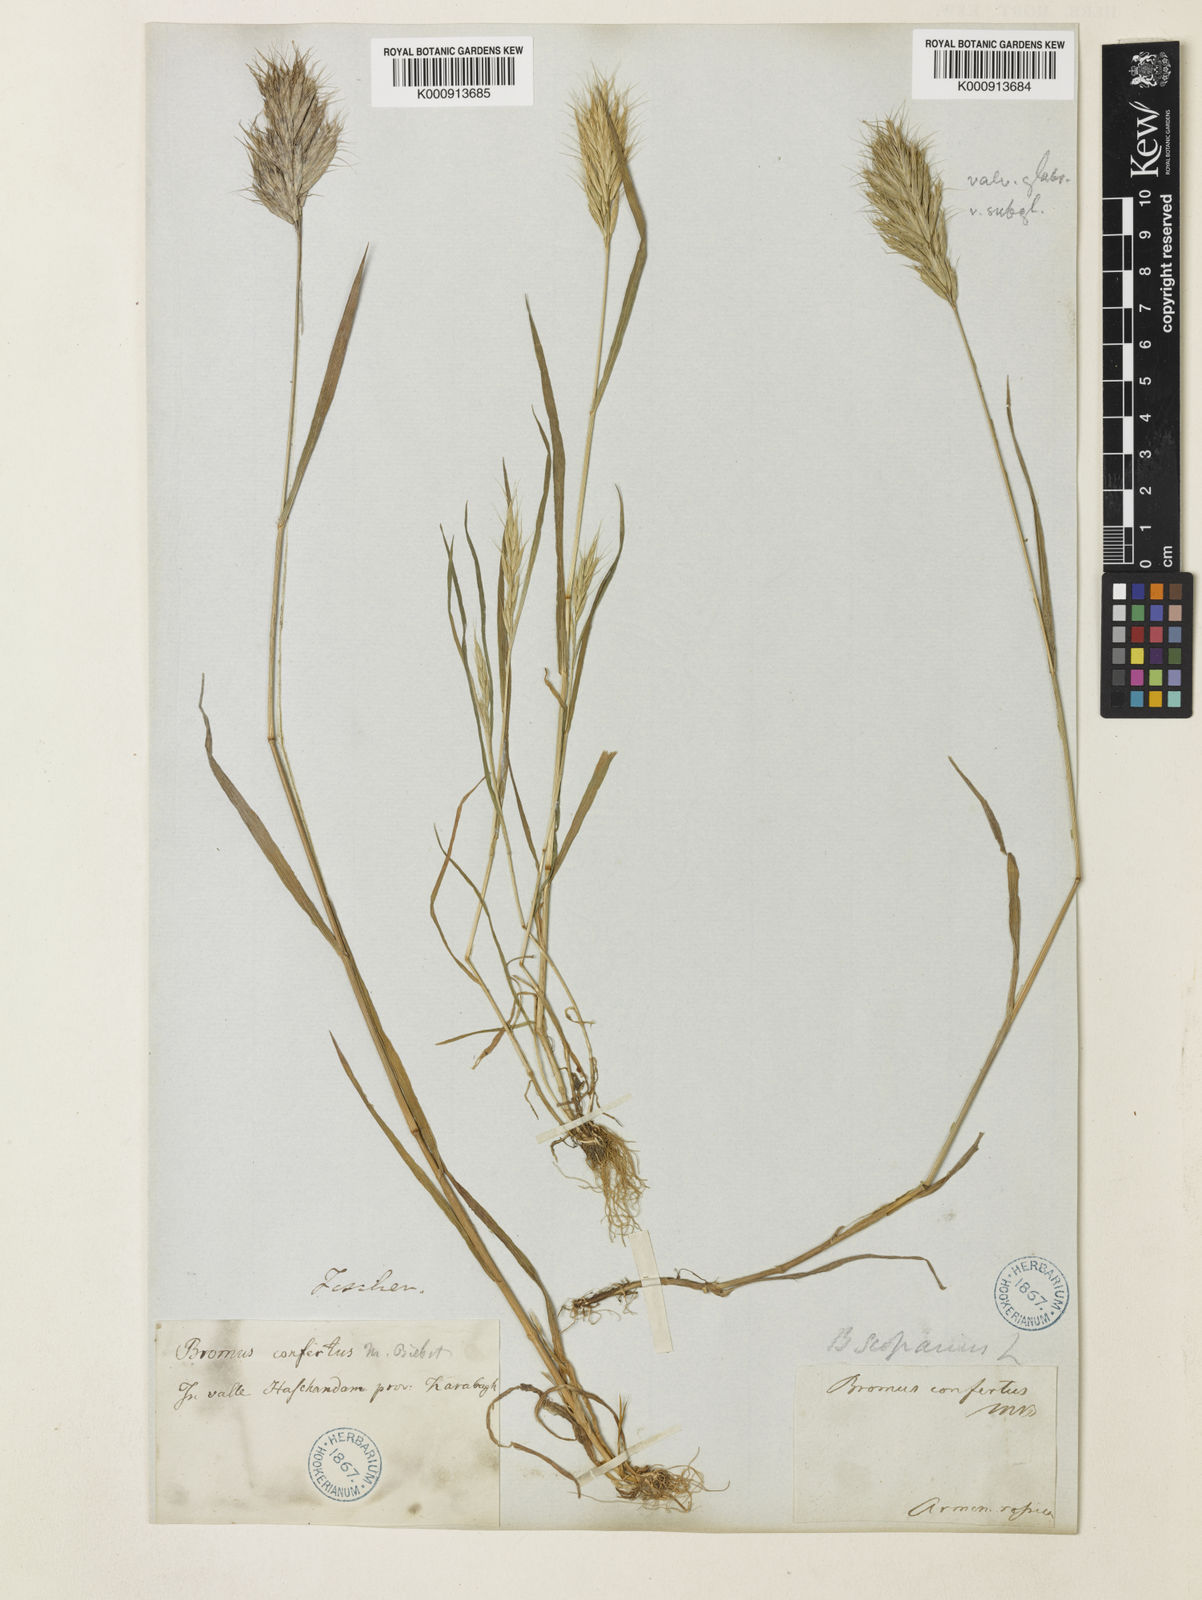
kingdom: Plantae
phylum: Tracheophyta
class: Liliopsida
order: Poales
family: Poaceae
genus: Bromus
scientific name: Bromus scoparius
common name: Broom brome
